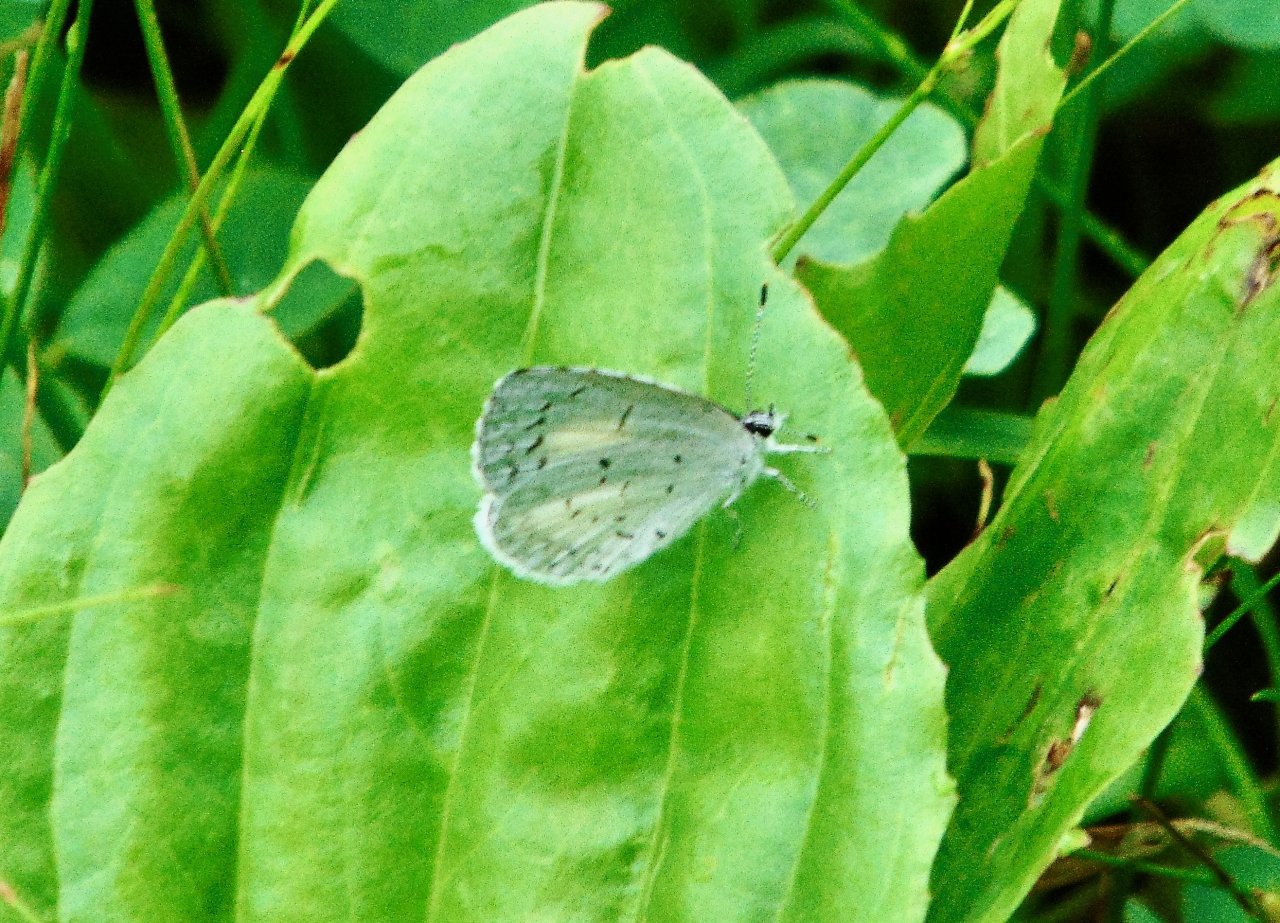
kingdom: Animalia
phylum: Arthropoda
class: Insecta
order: Lepidoptera
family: Lycaenidae
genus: Cyaniris
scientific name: Cyaniris neglecta
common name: Summer Azure
